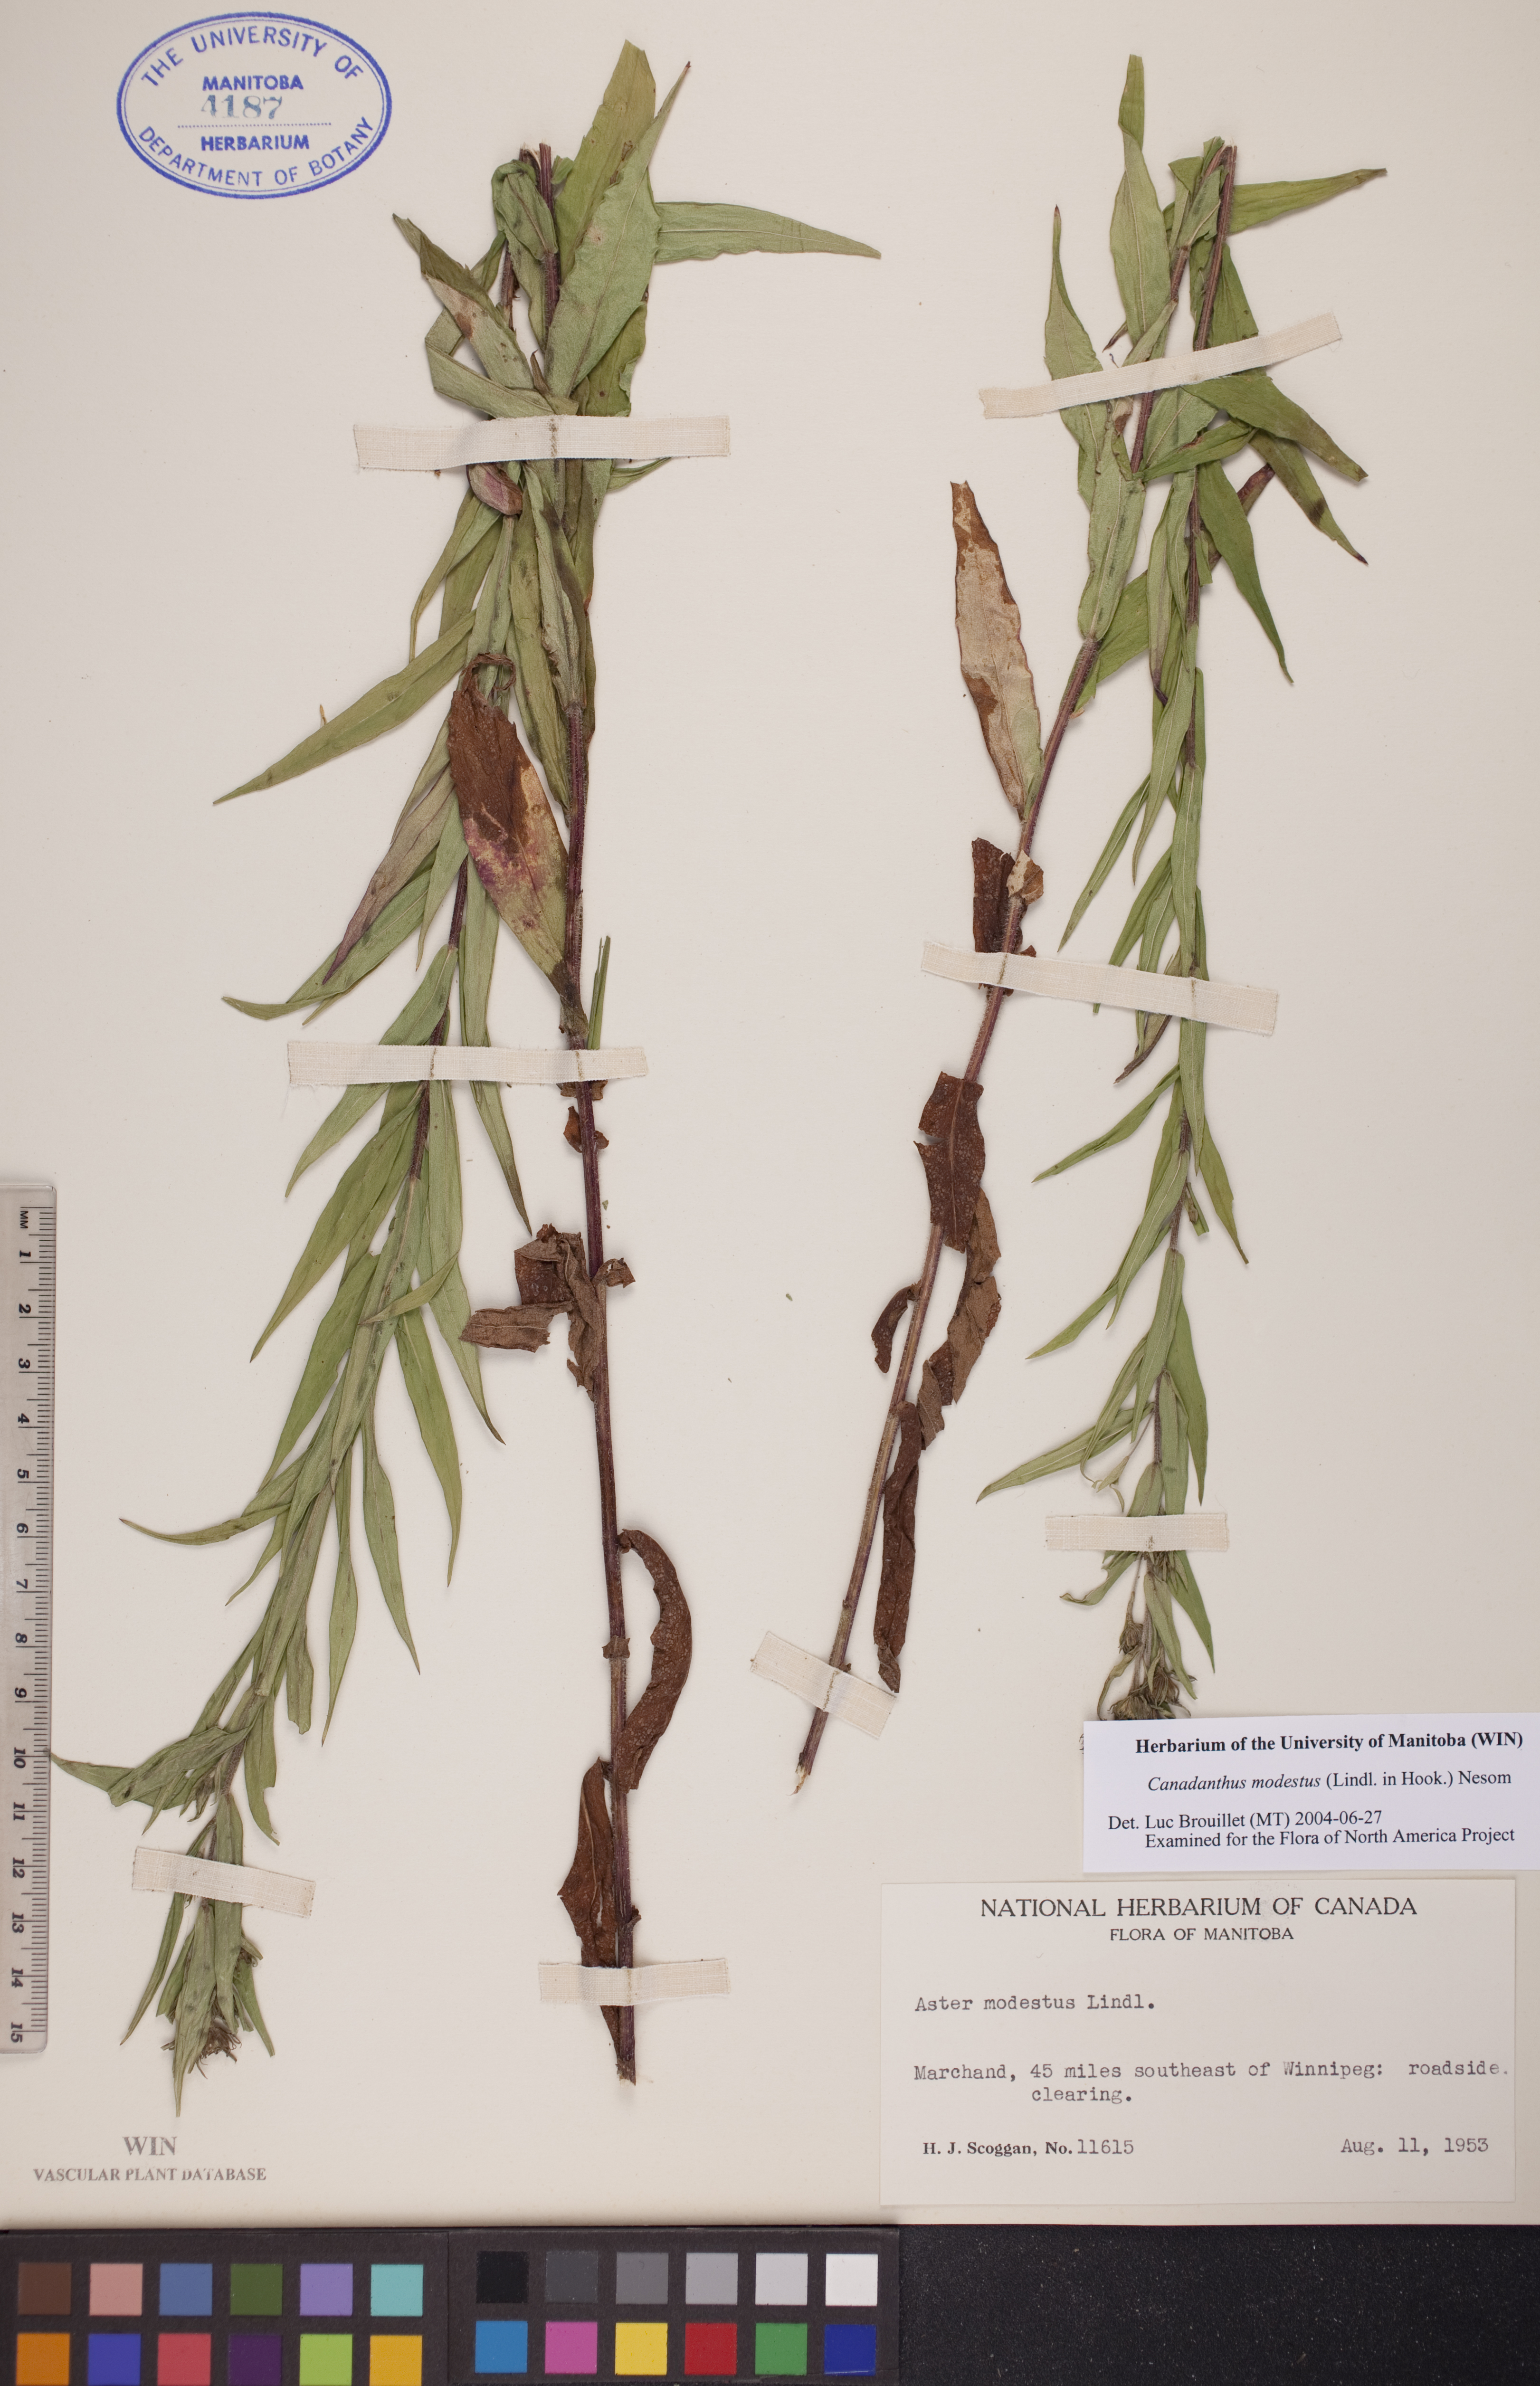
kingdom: Plantae
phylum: Tracheophyta
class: Magnoliopsida
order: Asterales
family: Asteraceae
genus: Canadanthus
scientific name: Canadanthus modestus
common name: Great northern aster
